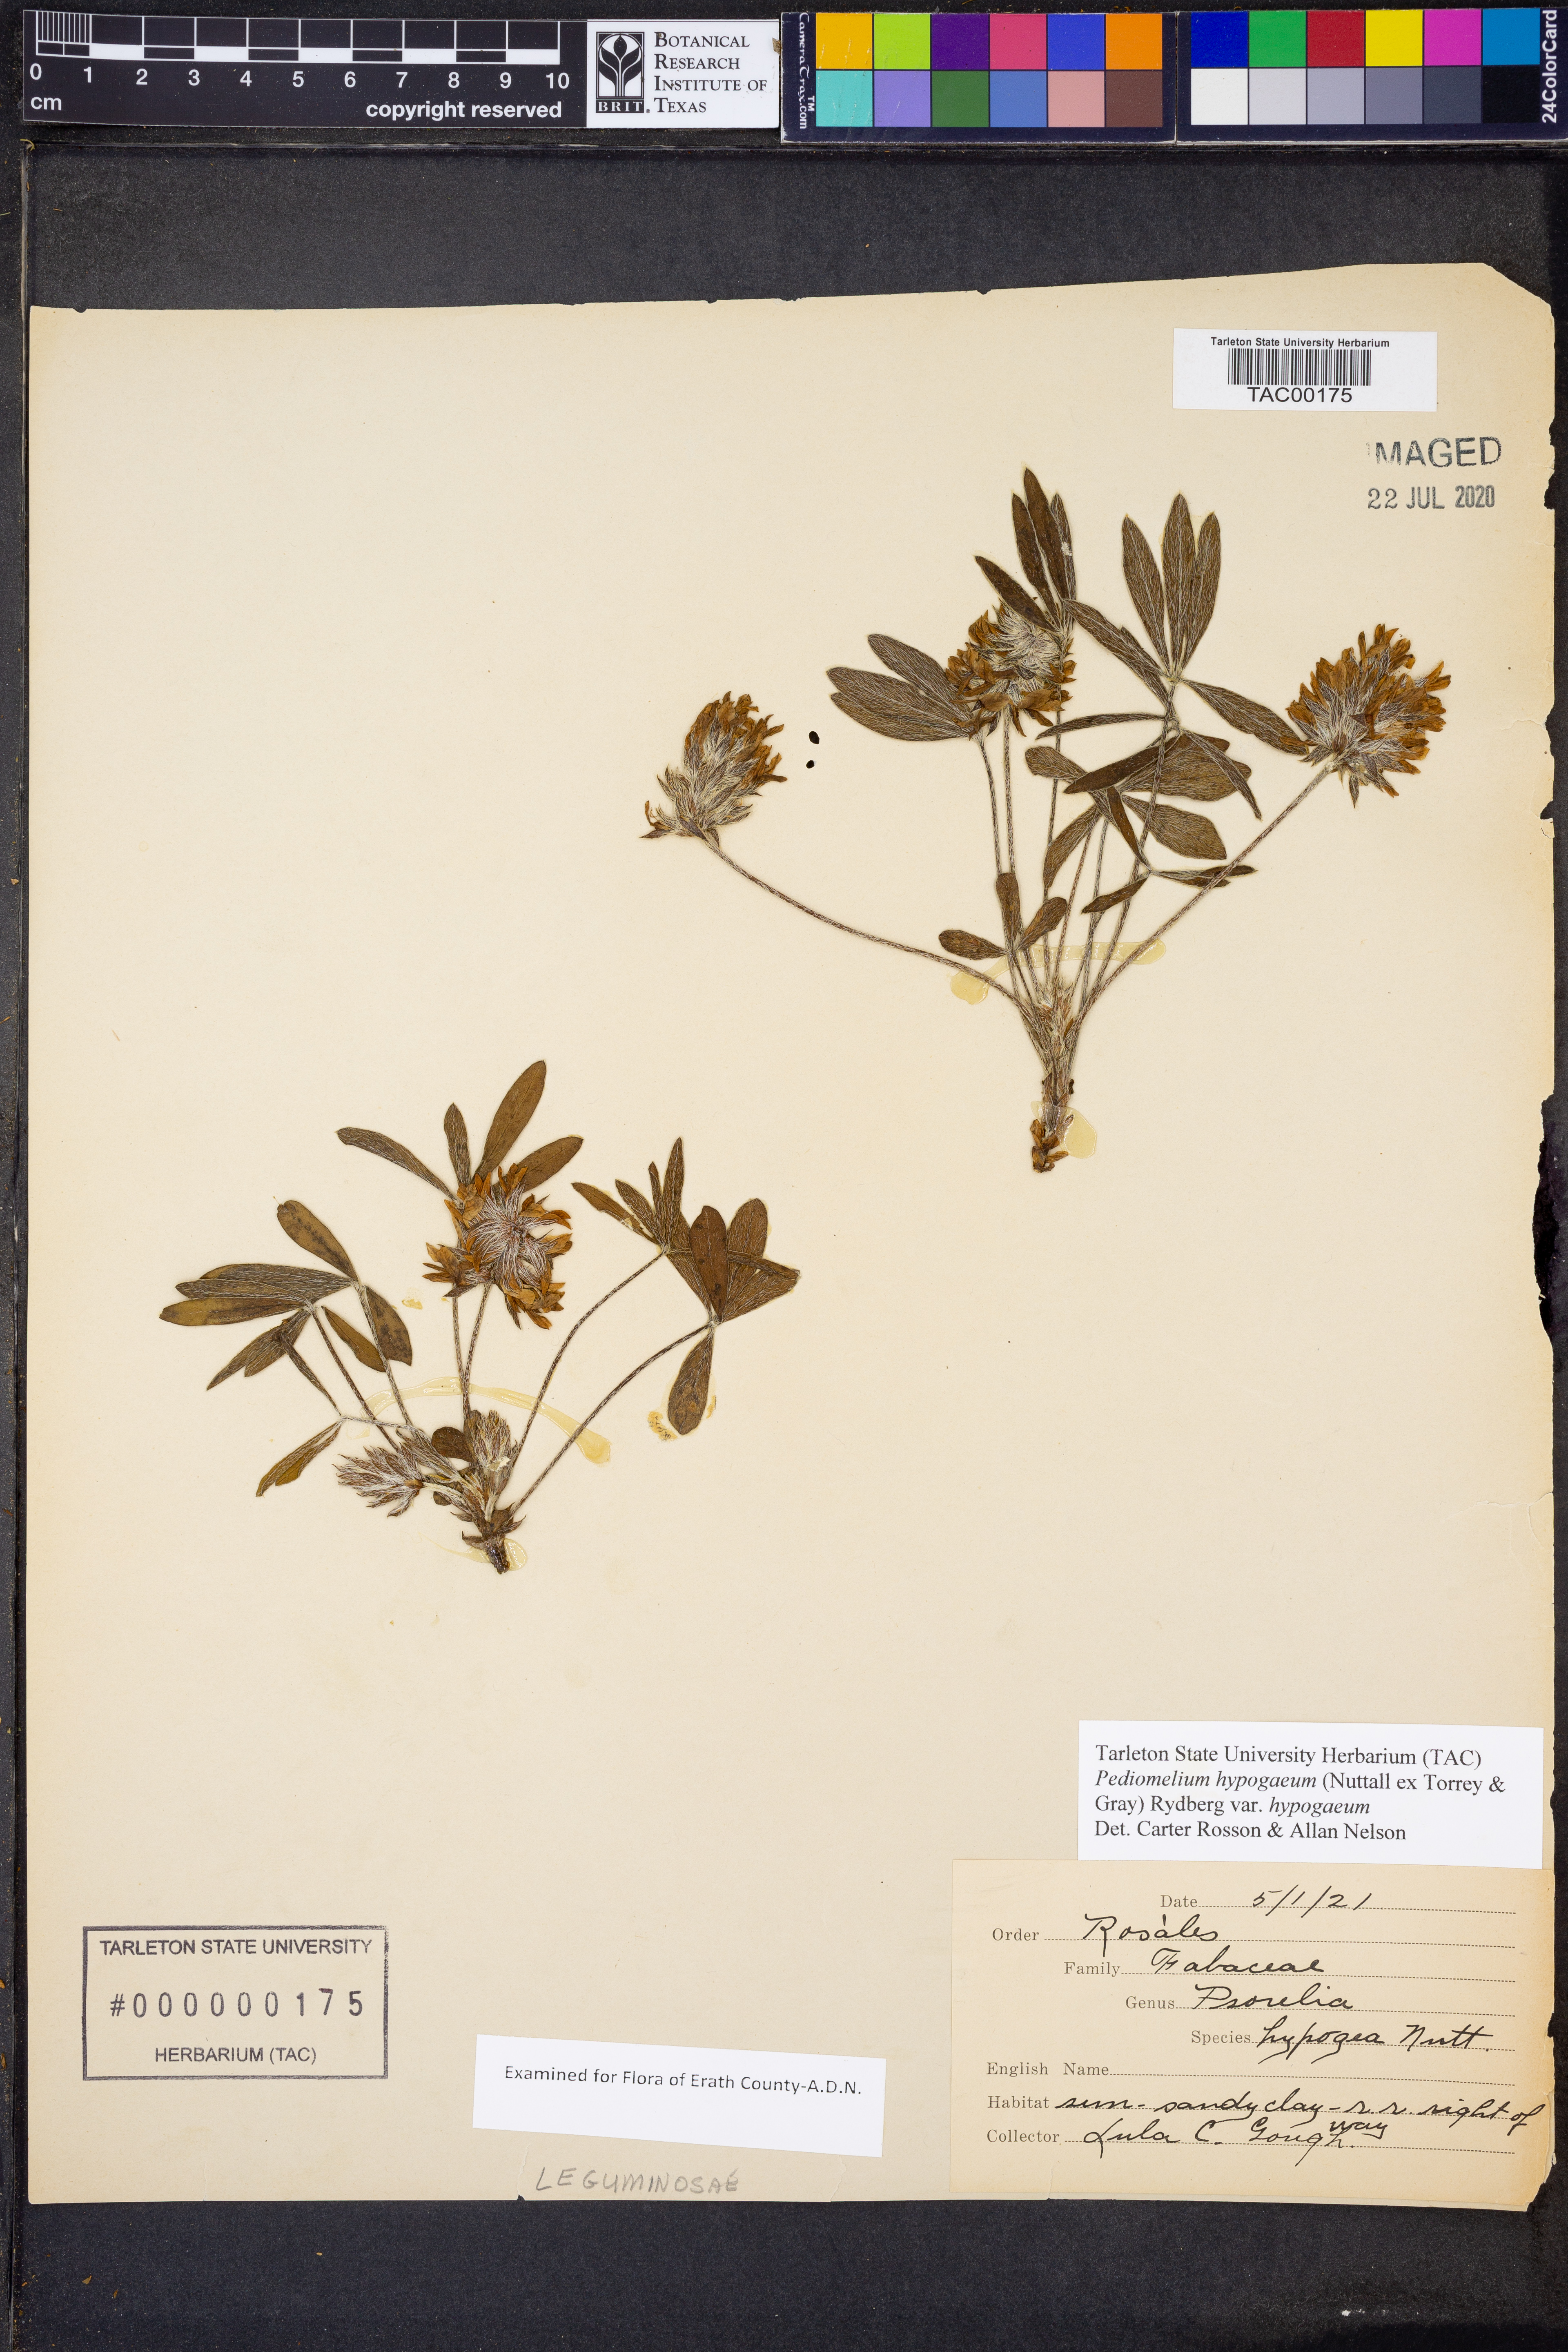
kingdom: Plantae
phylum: Tracheophyta
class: Magnoliopsida
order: Fabales
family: Fabaceae
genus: Pediomelum
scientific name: Pediomelum hypogaeum
